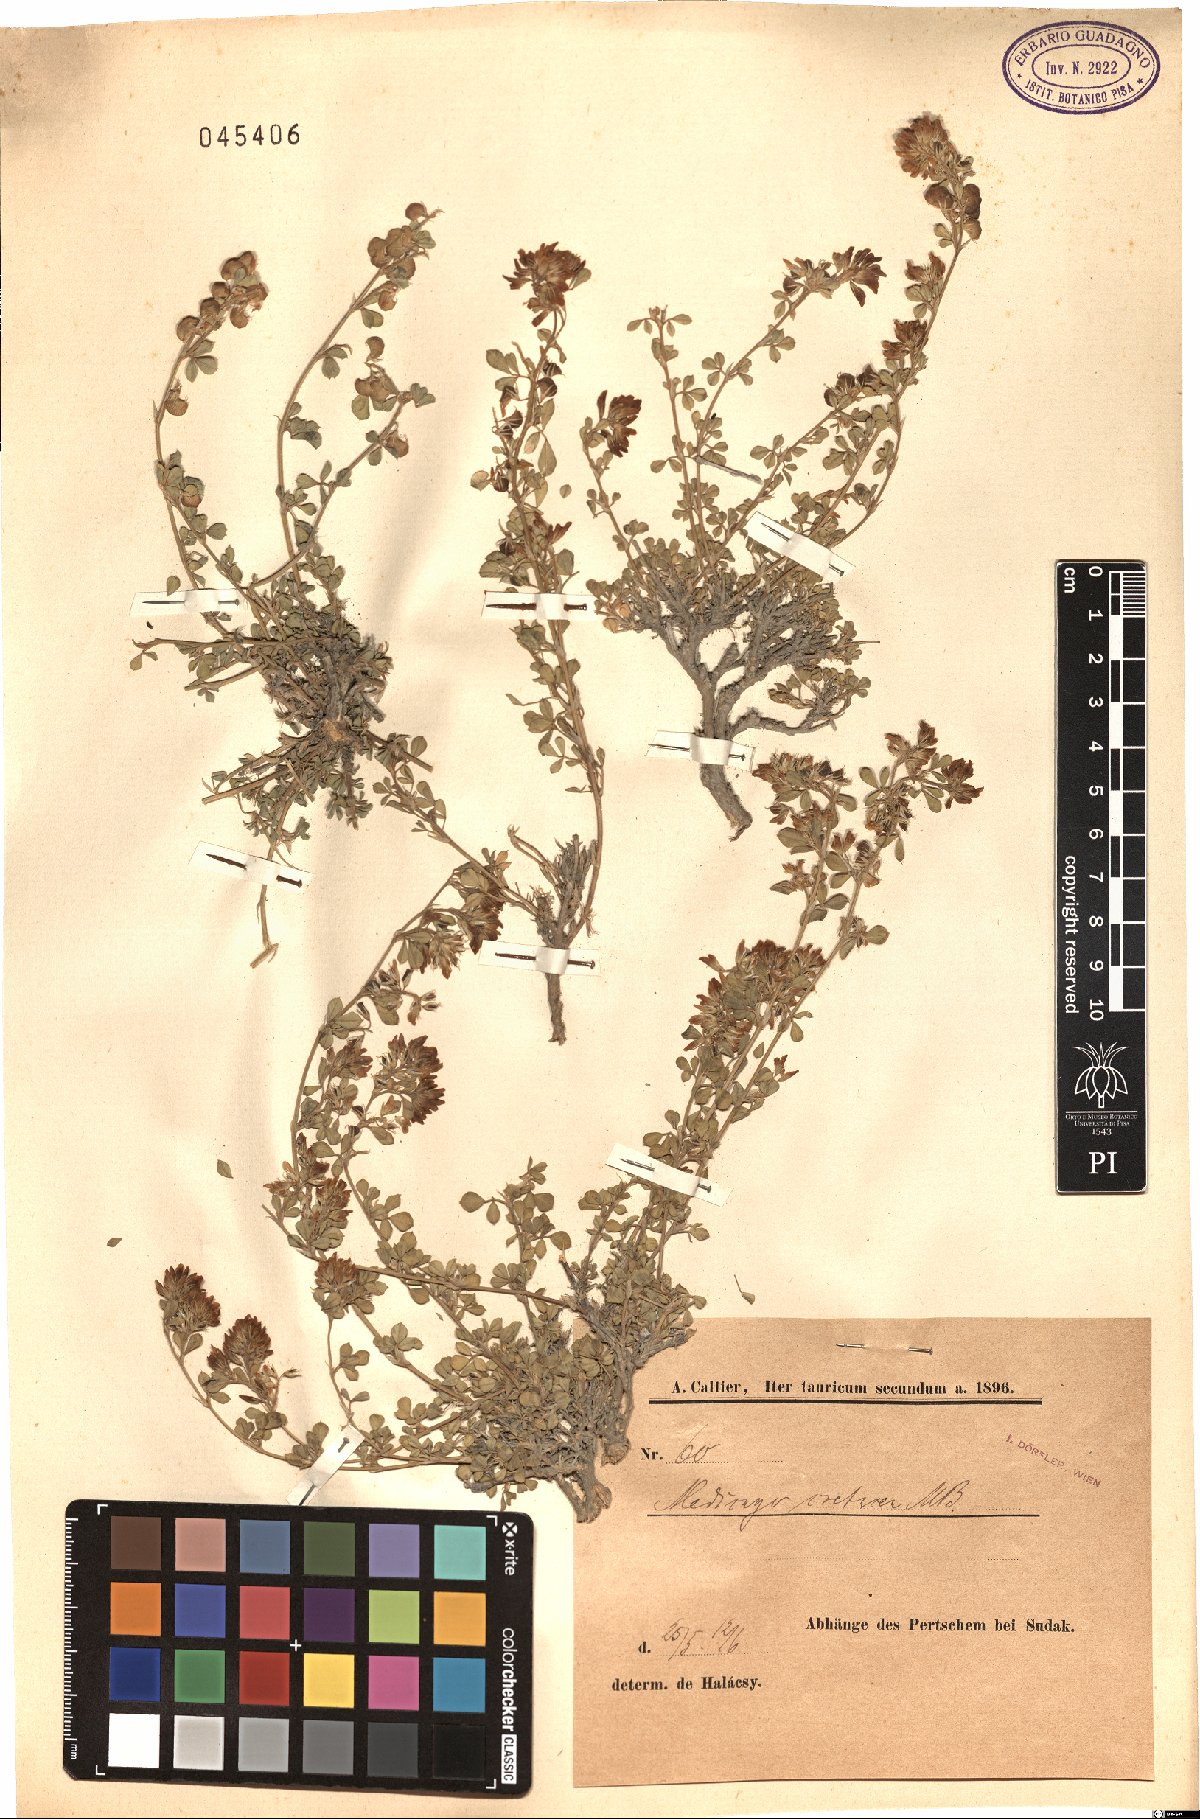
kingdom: Plantae
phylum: Tracheophyta
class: Magnoliopsida
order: Fabales
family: Fabaceae
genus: Medicago
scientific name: Medicago cretacea
